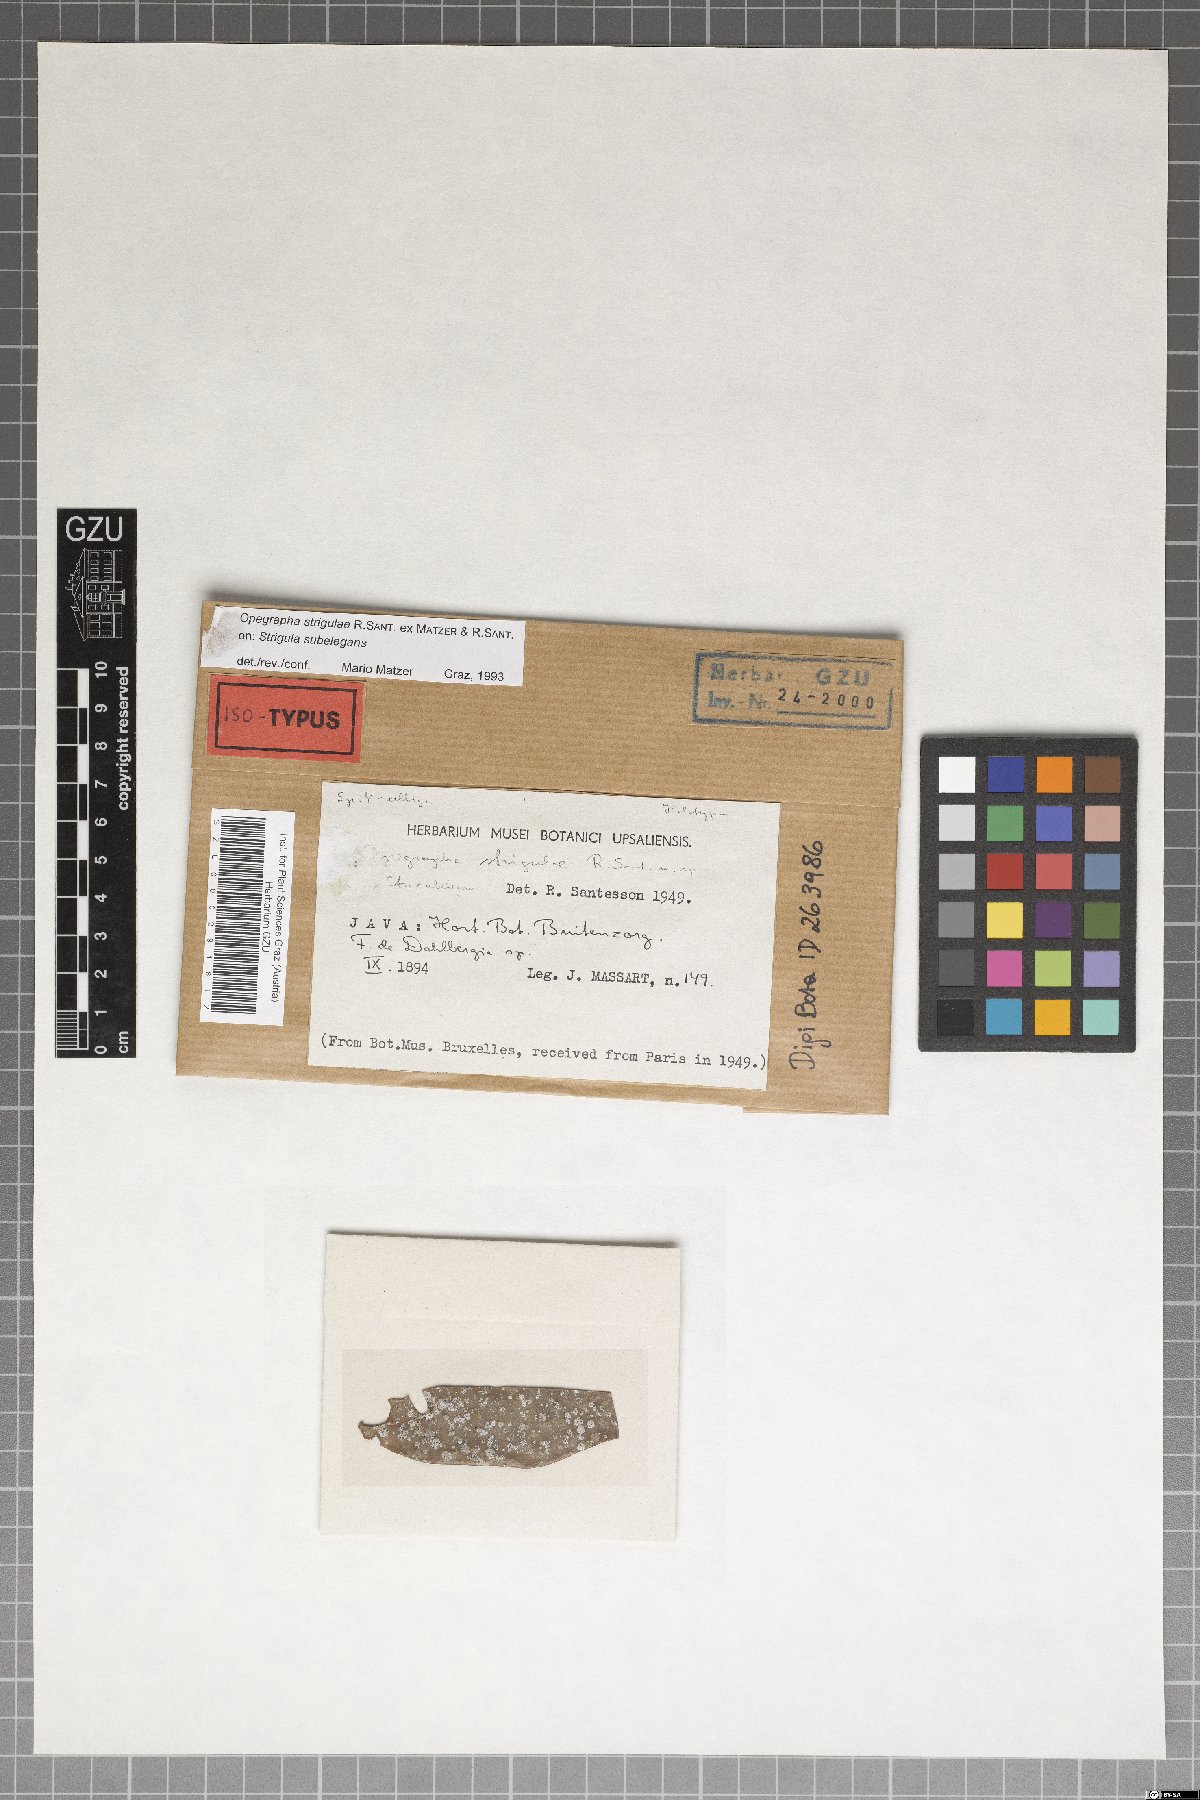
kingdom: Fungi
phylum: Ascomycota
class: Arthoniomycetes
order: Arthoniales
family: Opegraphaceae
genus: Opegrapha
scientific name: Opegrapha strigulae
